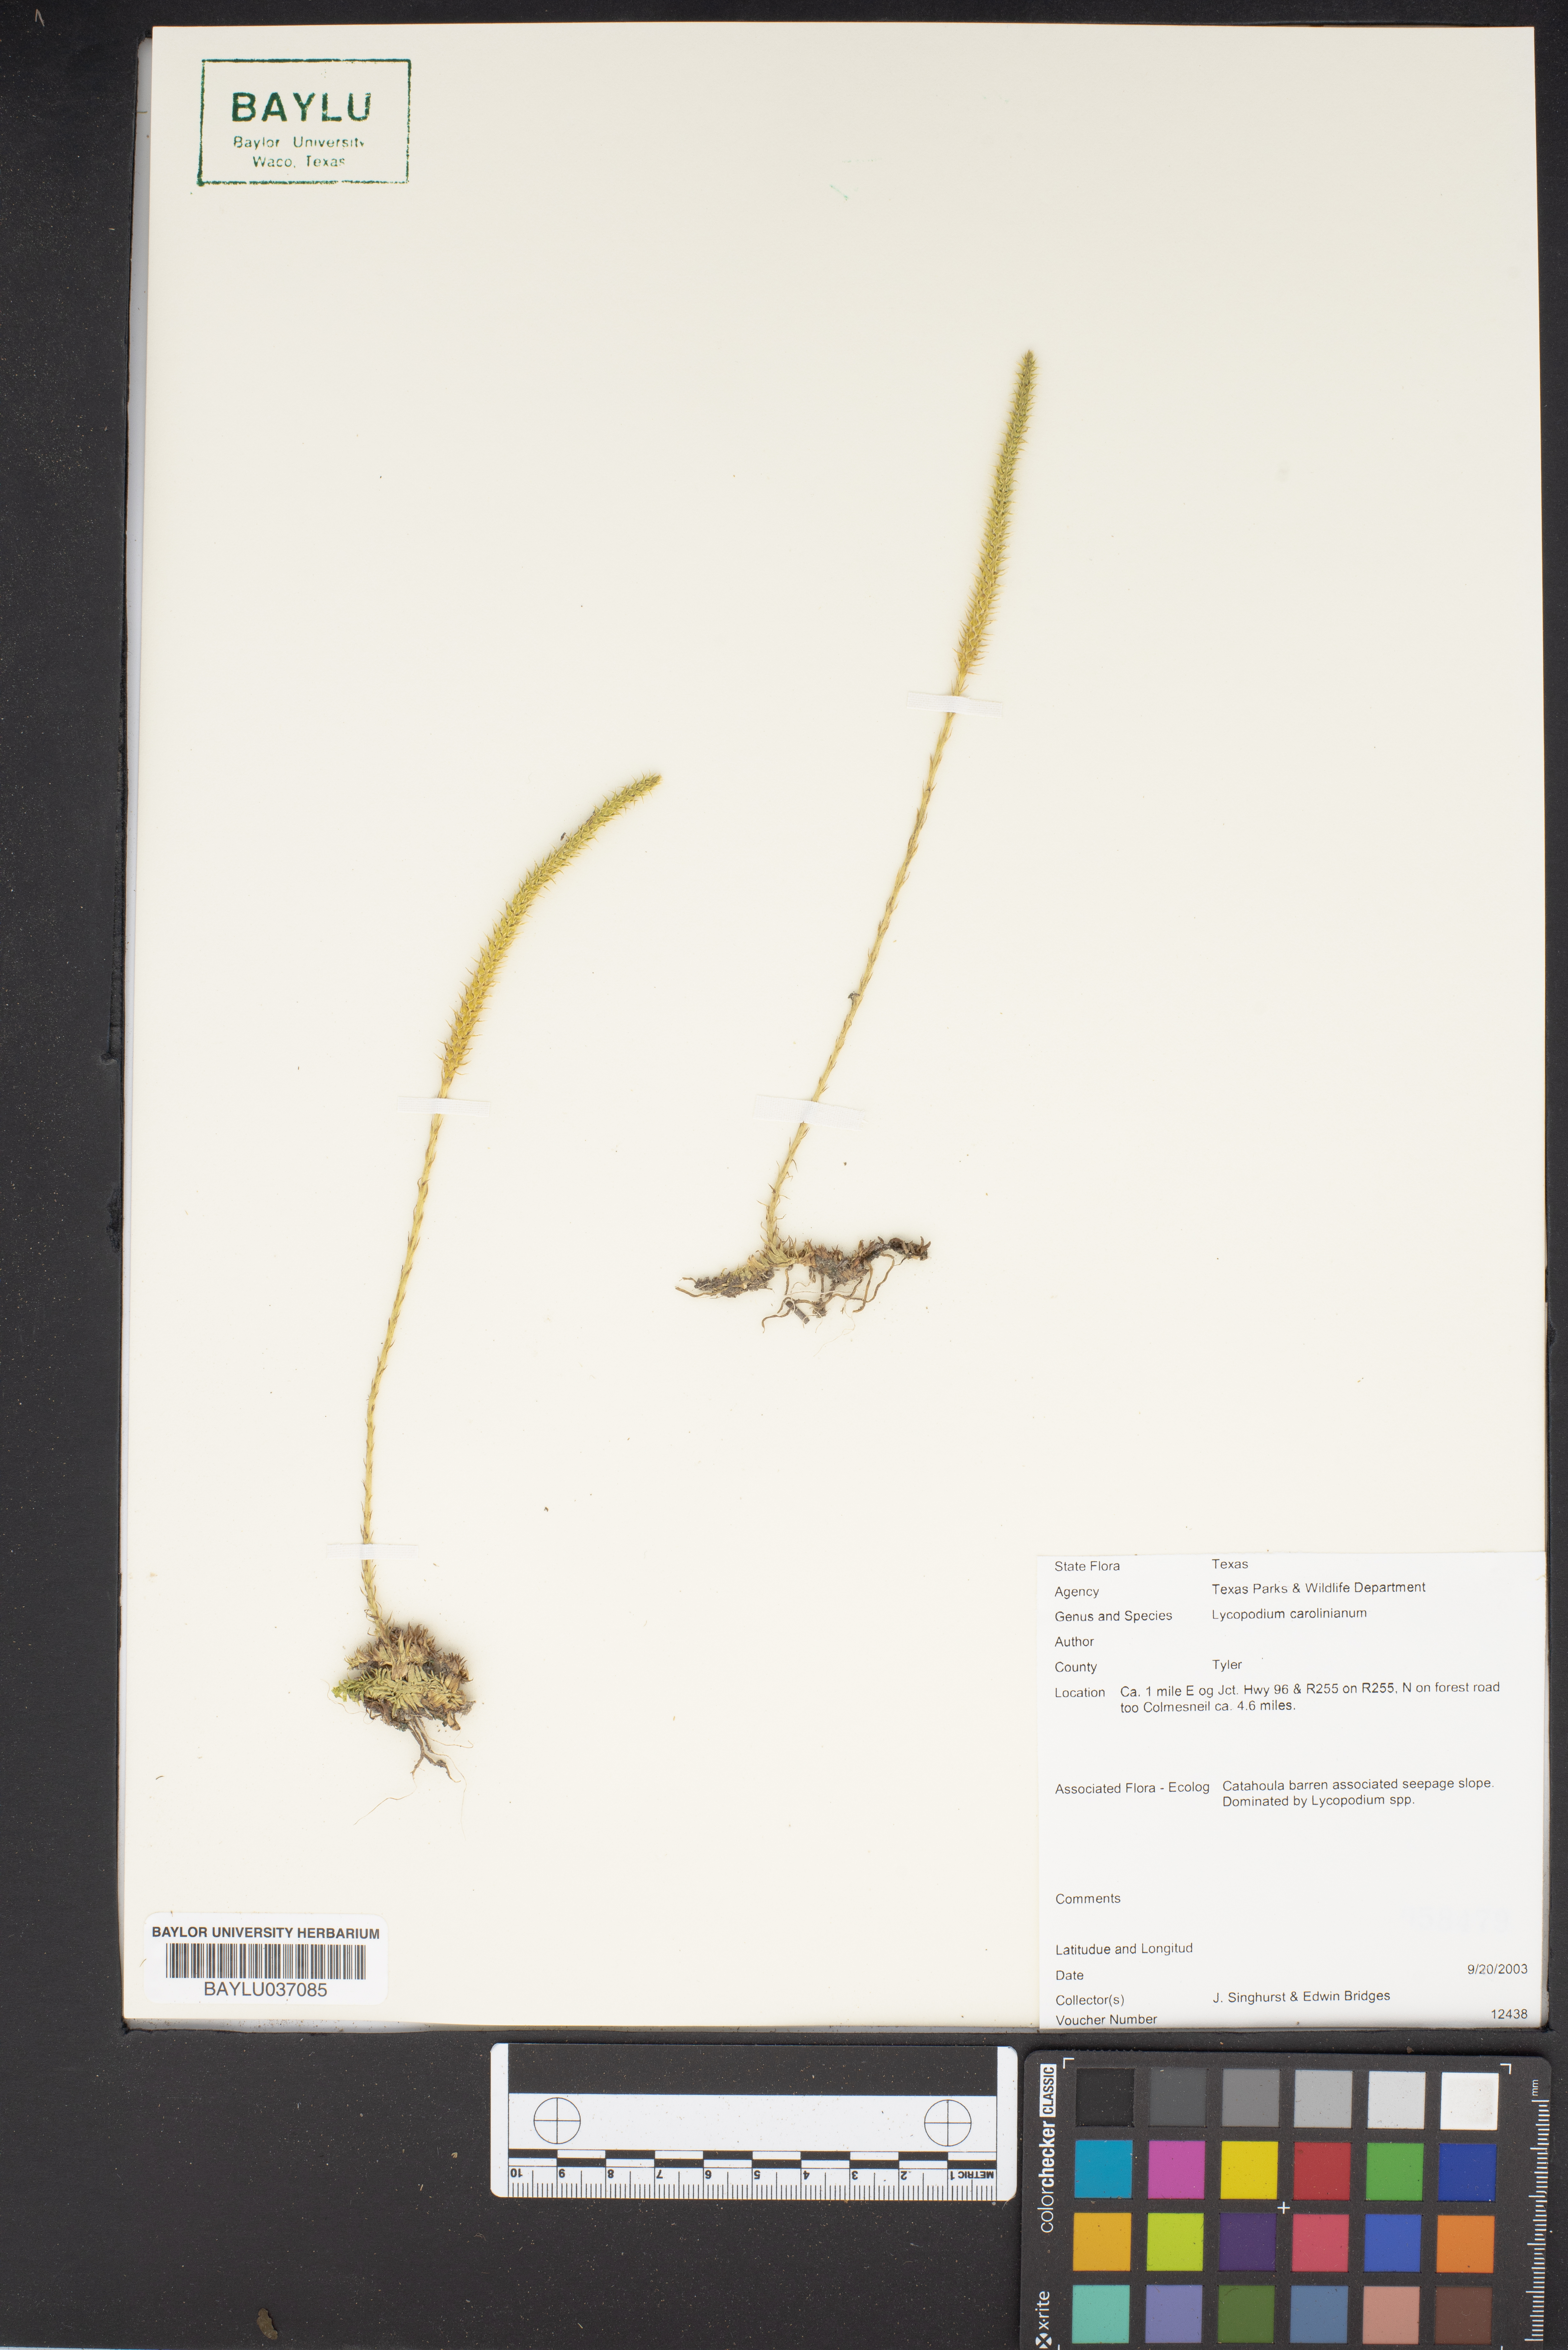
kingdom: Plantae
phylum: Tracheophyta
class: Lycopodiopsida
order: Lycopodiales
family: Lycopodiaceae
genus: Pseudolycopodiella
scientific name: Pseudolycopodiella caroliniana
